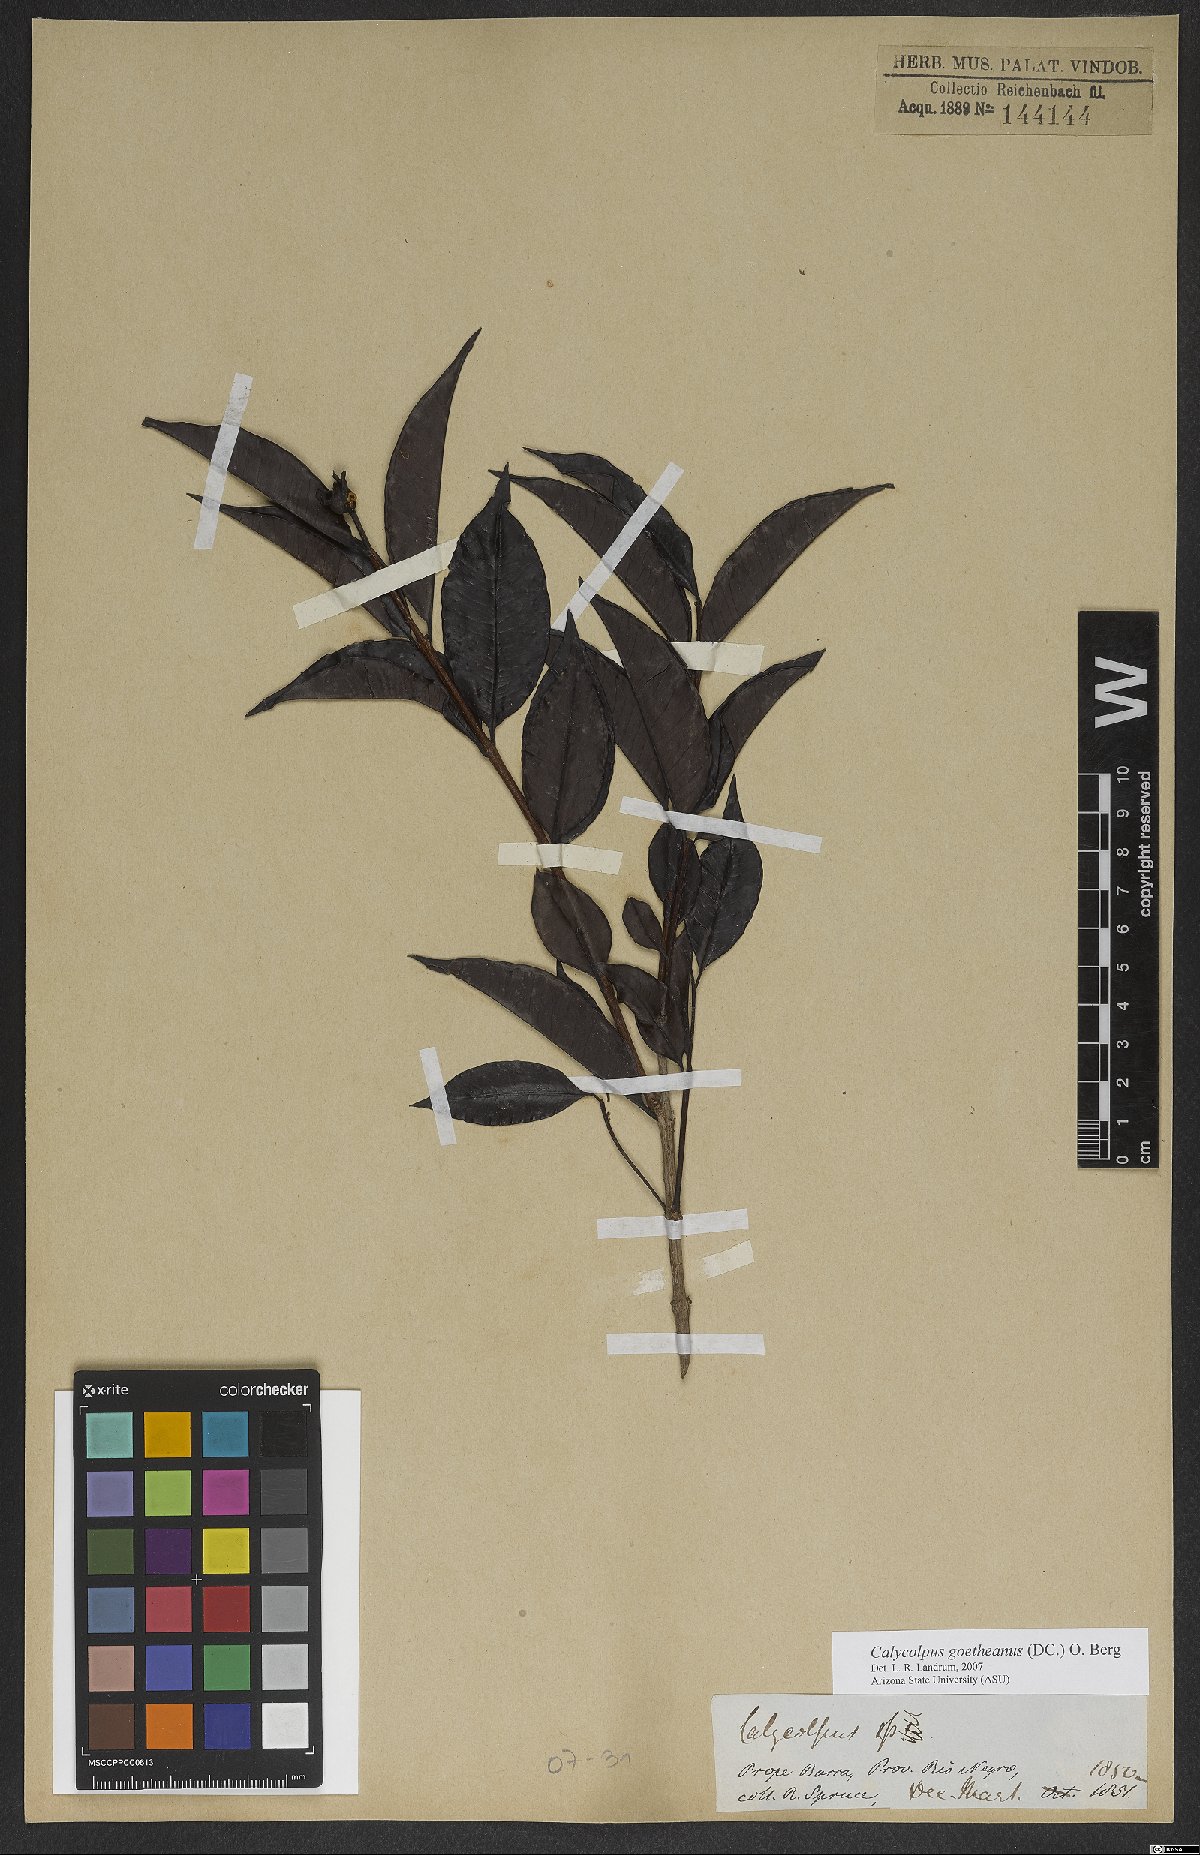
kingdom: Plantae
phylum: Tracheophyta
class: Magnoliopsida
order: Myrtales
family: Myrtaceae
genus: Calycolpus
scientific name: Calycolpus goetheanus
